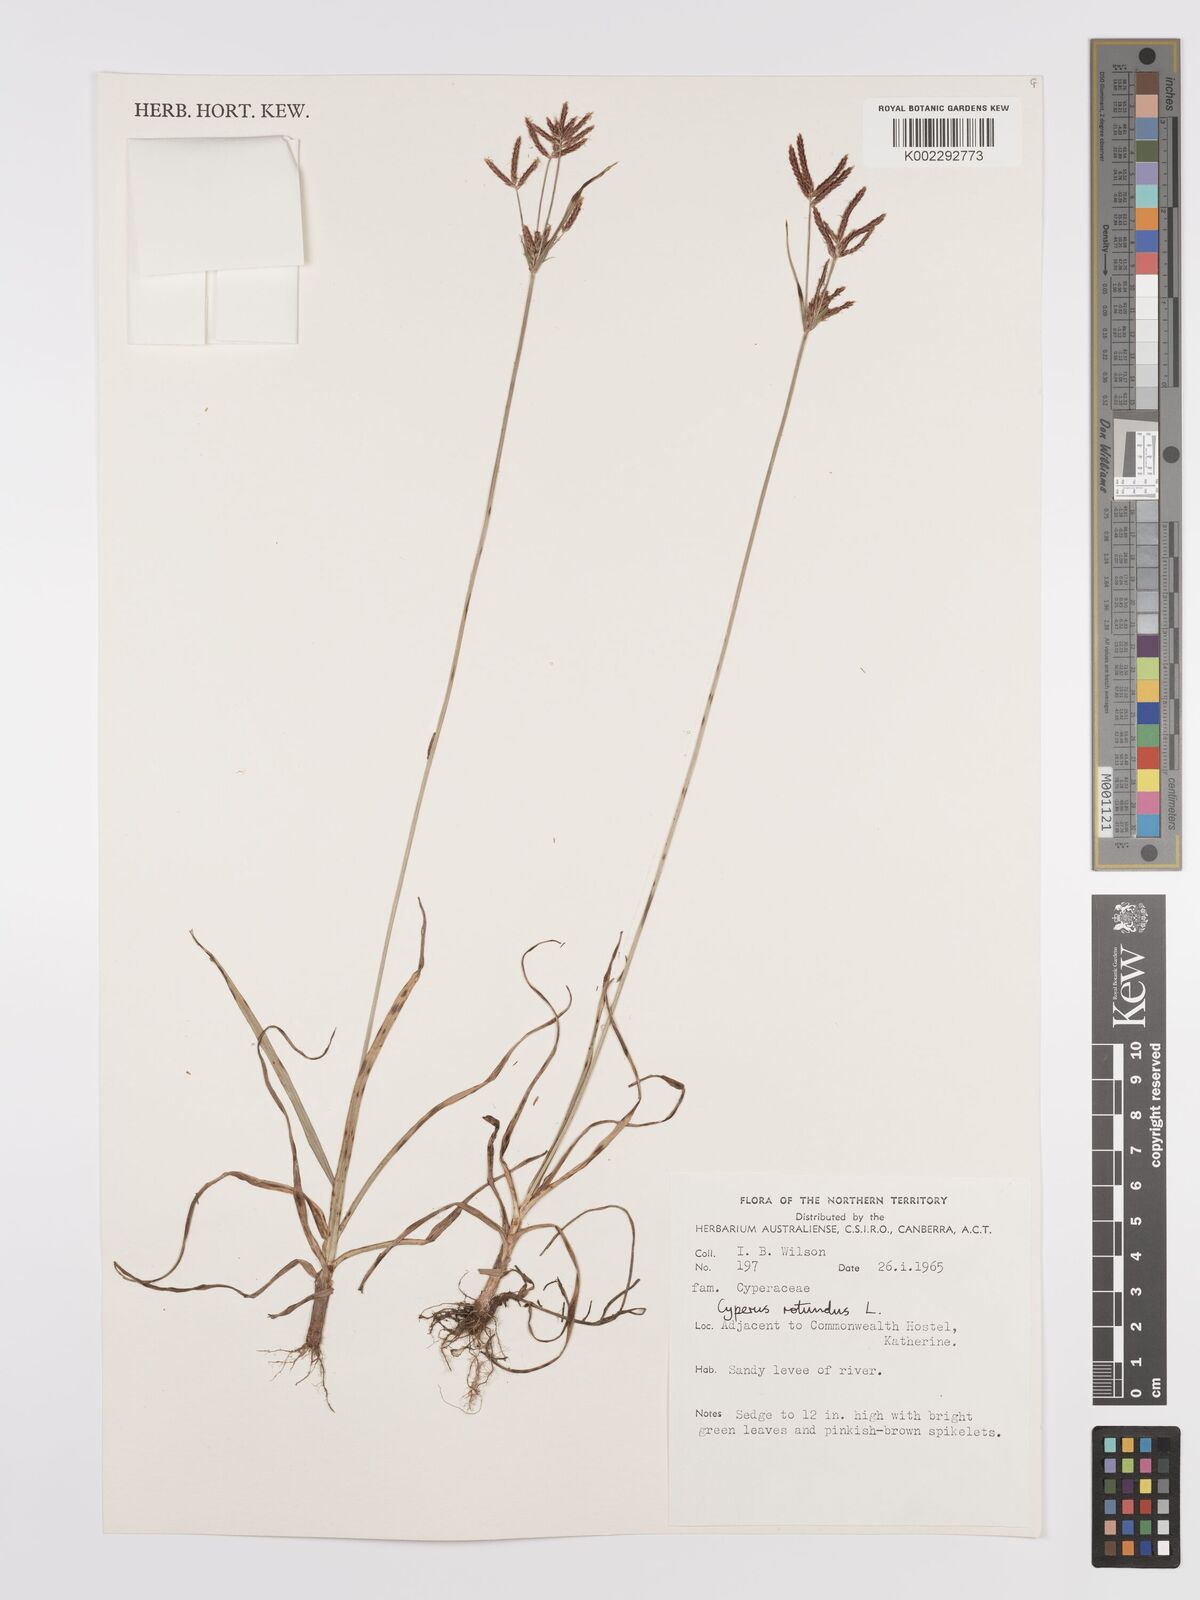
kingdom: Plantae
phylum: Tracheophyta
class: Liliopsida
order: Poales
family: Cyperaceae
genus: Cyperus
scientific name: Cyperus rotundus
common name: Nutgrass
